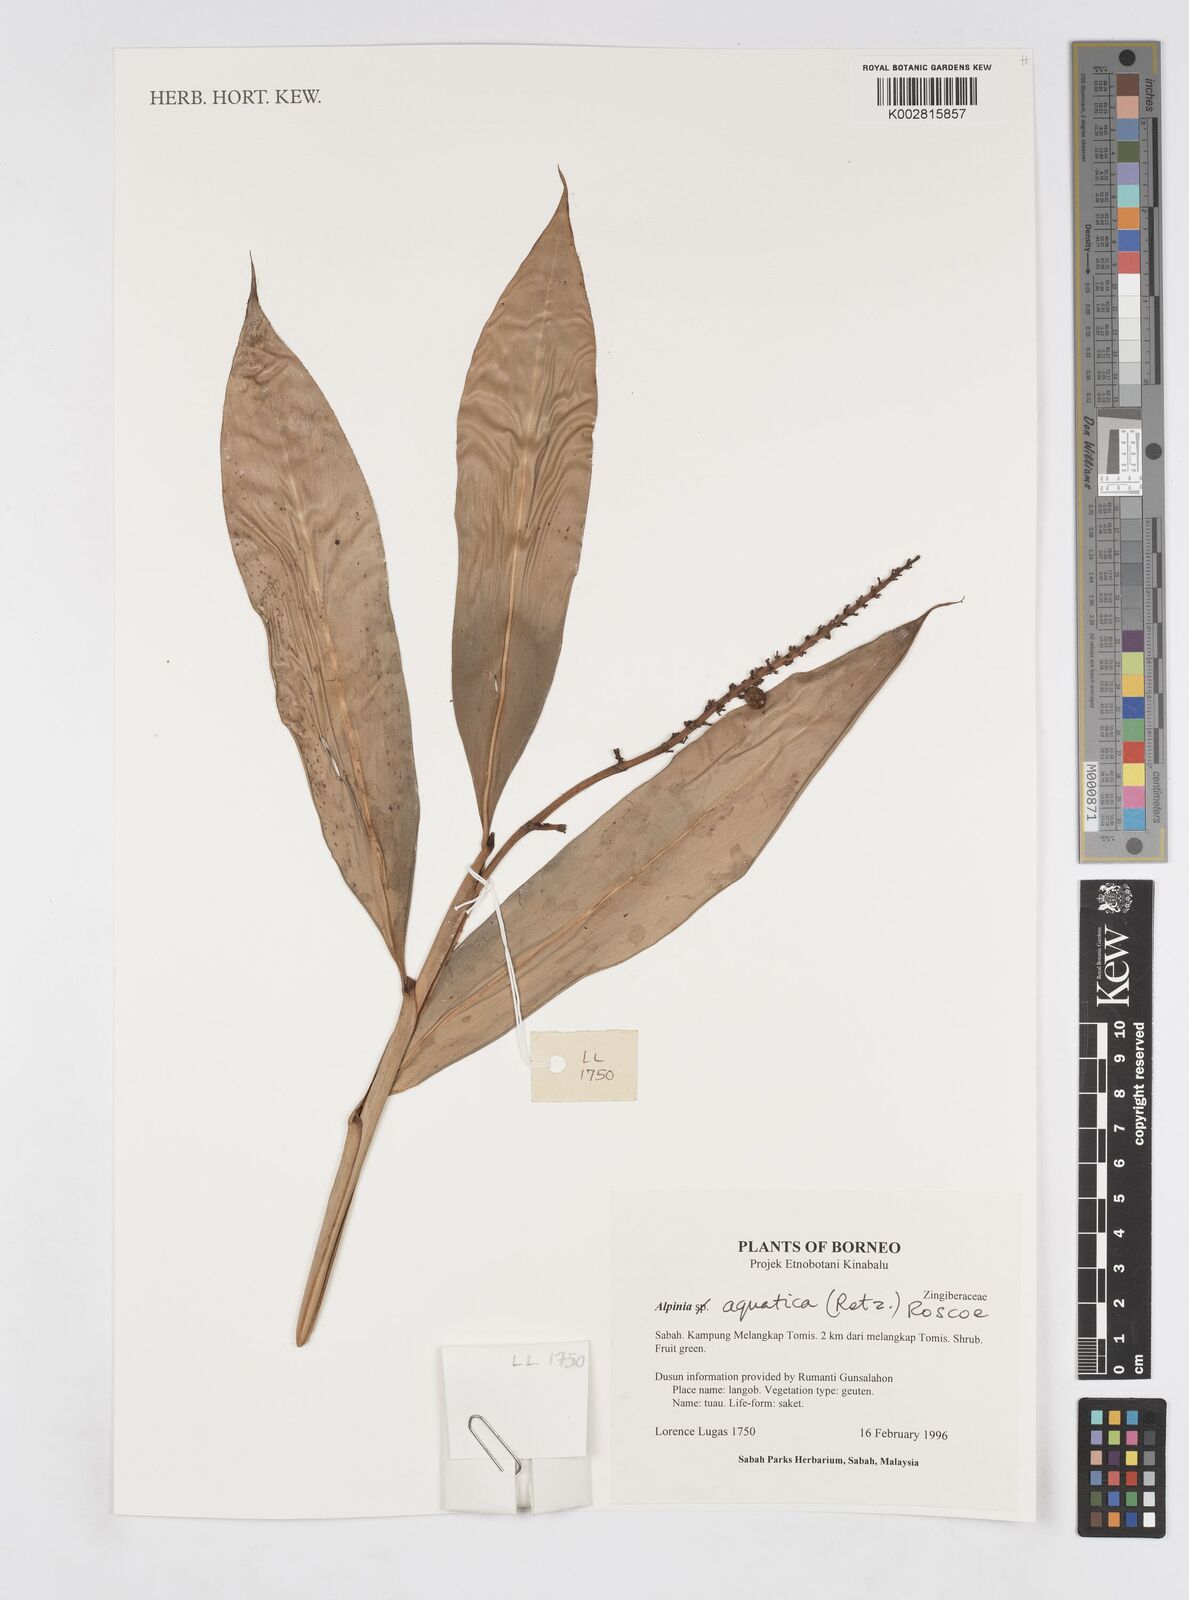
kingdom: Plantae
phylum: Tracheophyta
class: Liliopsida
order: Zingiberales
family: Zingiberaceae
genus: Alpinia
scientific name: Alpinia aquatica
